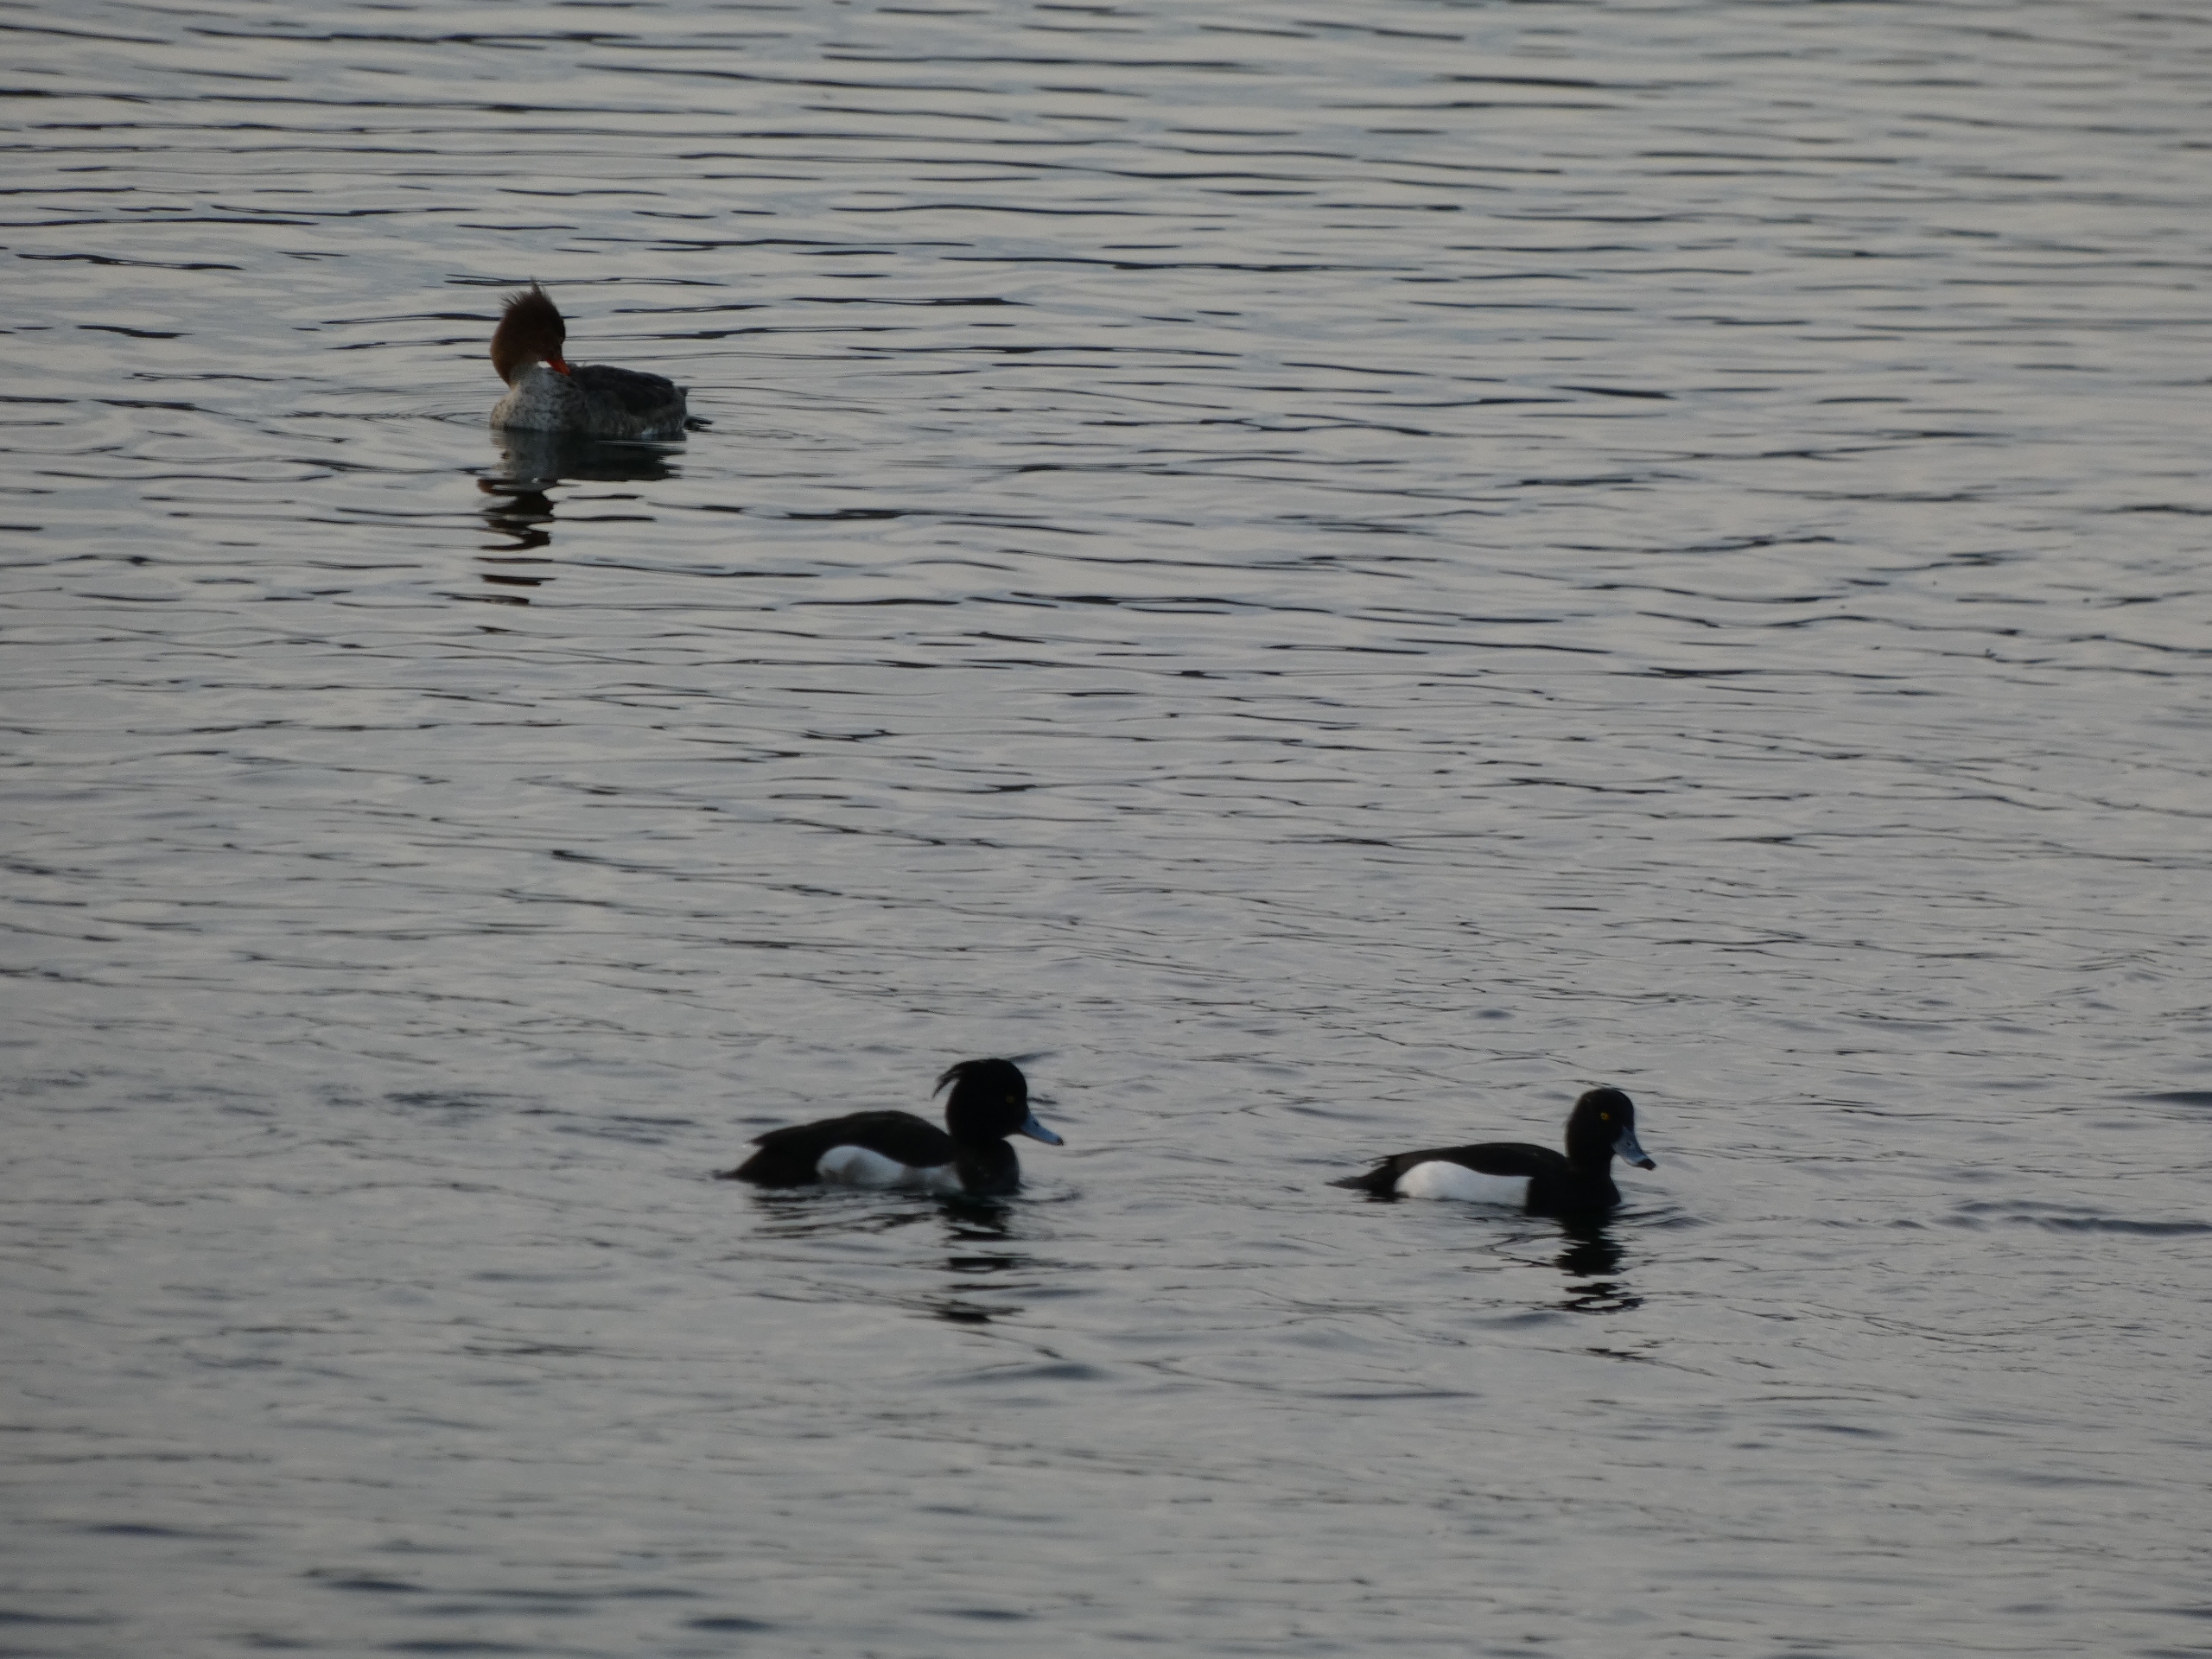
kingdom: Animalia
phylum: Chordata
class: Aves
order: Anseriformes
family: Anatidae
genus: Aythya
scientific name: Aythya fuligula
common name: Troldand
